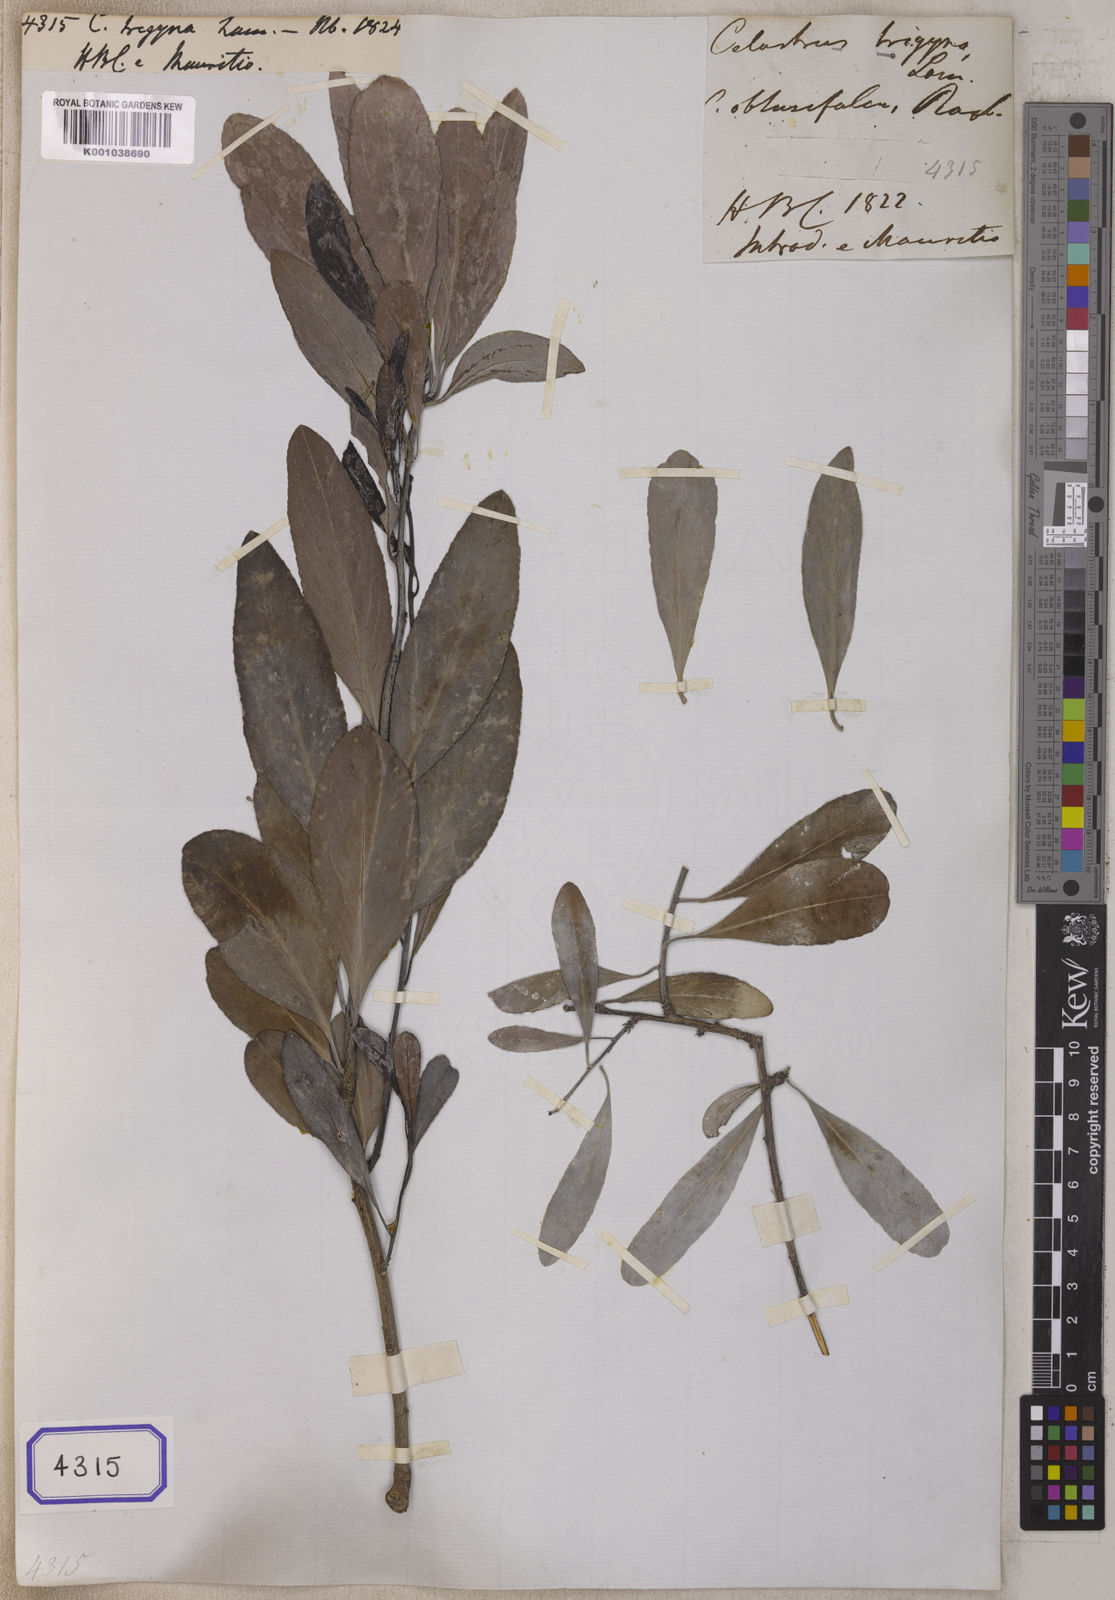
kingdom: Plantae
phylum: Tracheophyta
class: Magnoliopsida
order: Celastrales
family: Celastraceae
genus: Gymnosporia
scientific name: Gymnosporia pyria
